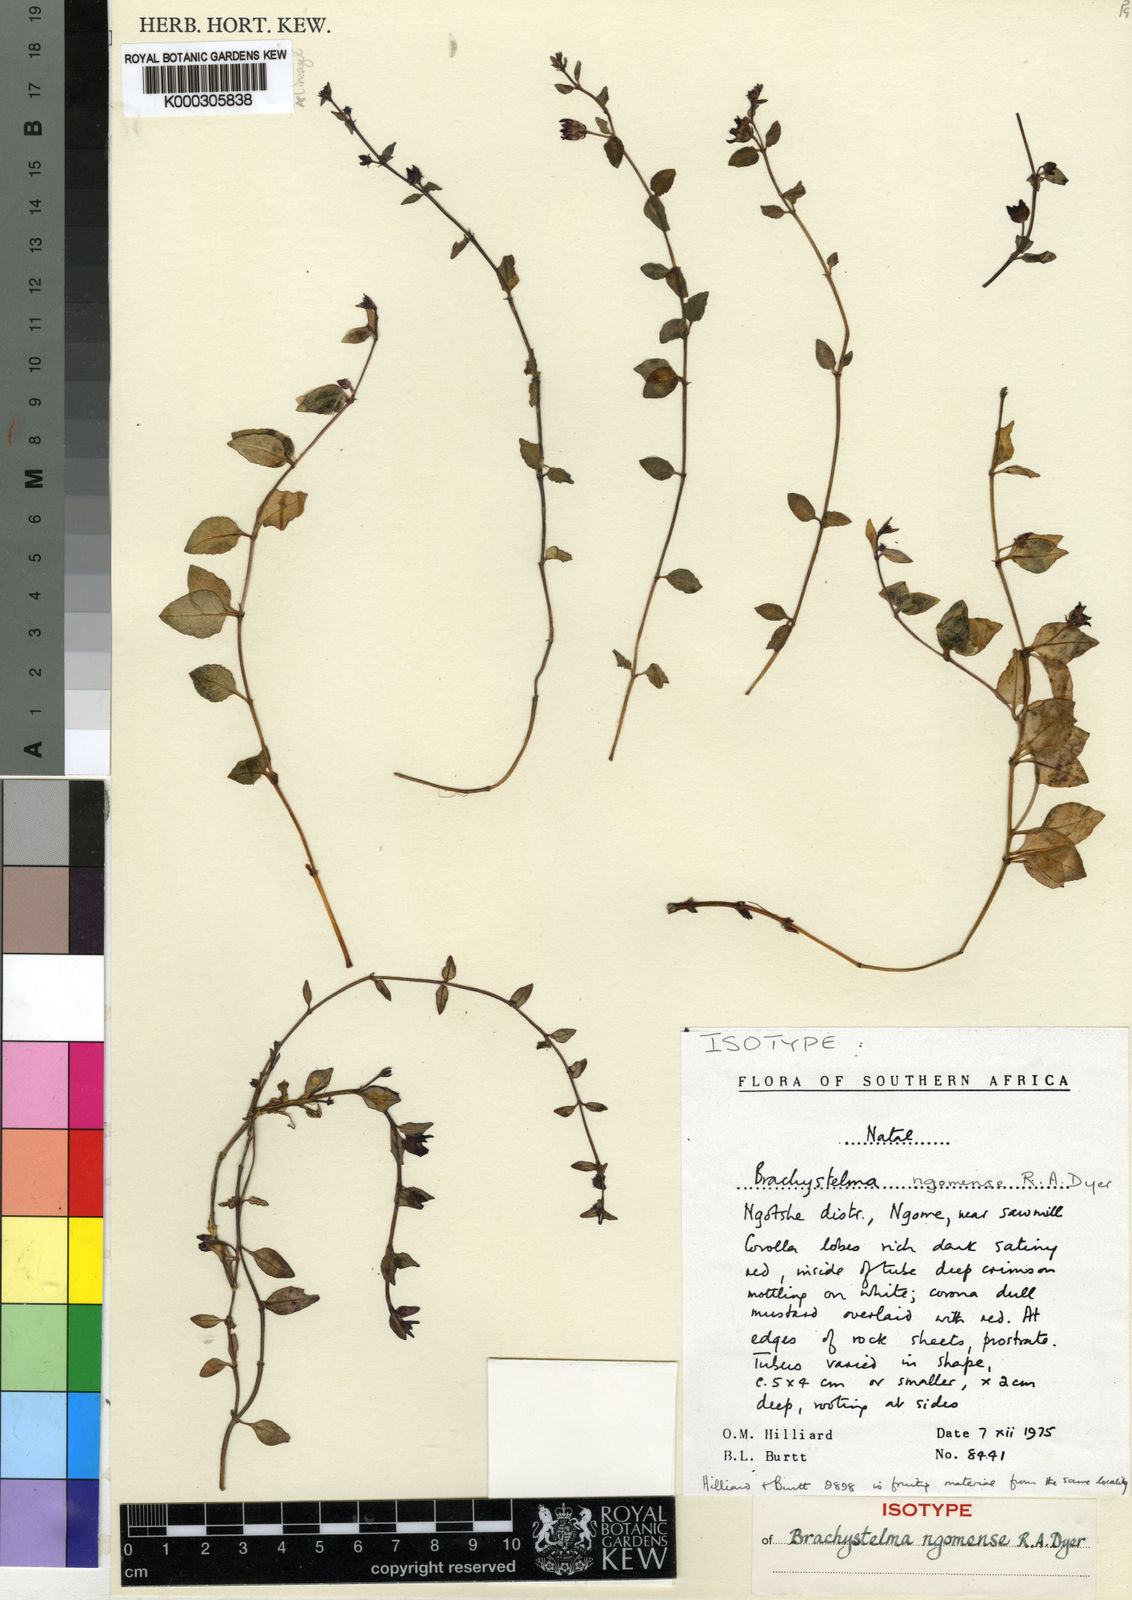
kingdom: Plantae
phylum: Tracheophyta
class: Magnoliopsida
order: Gentianales
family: Apocynaceae
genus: Ceropegia
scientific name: Ceropegia ngomensis
